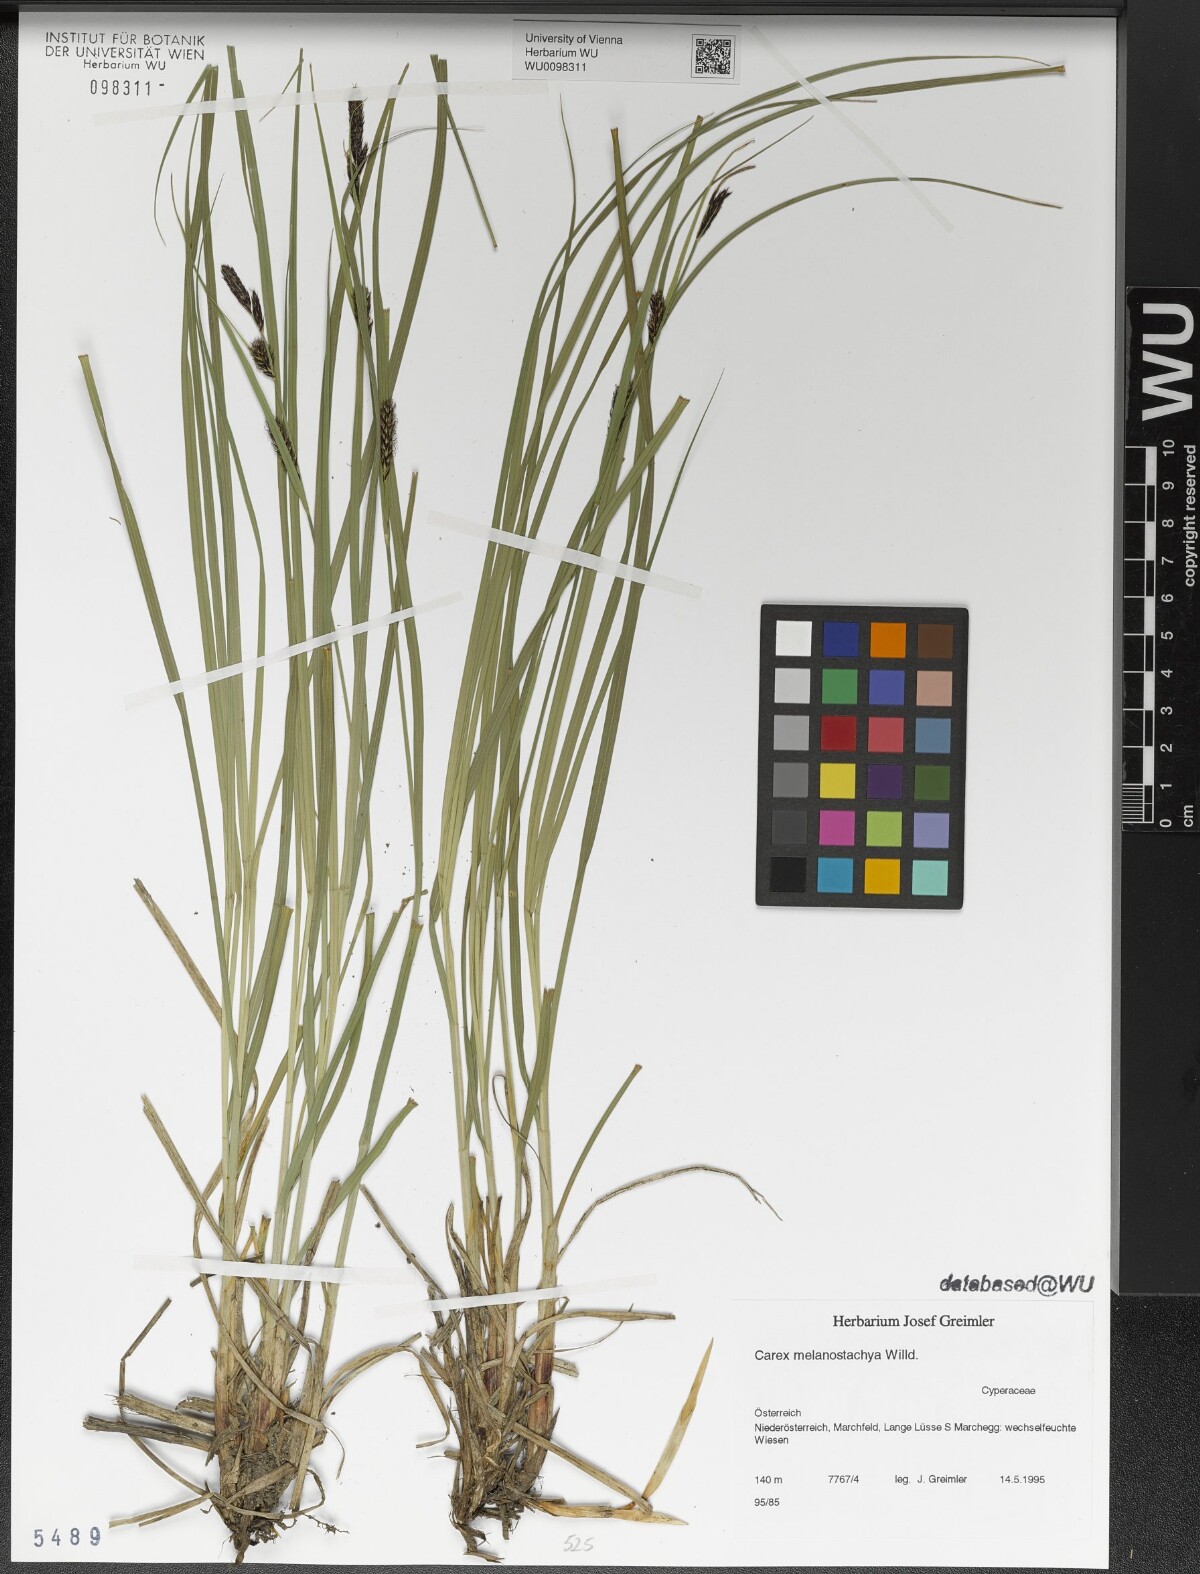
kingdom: Plantae
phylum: Tracheophyta
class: Liliopsida
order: Poales
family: Cyperaceae
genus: Carex
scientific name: Carex melanostachya
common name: Black-spiked sedge
